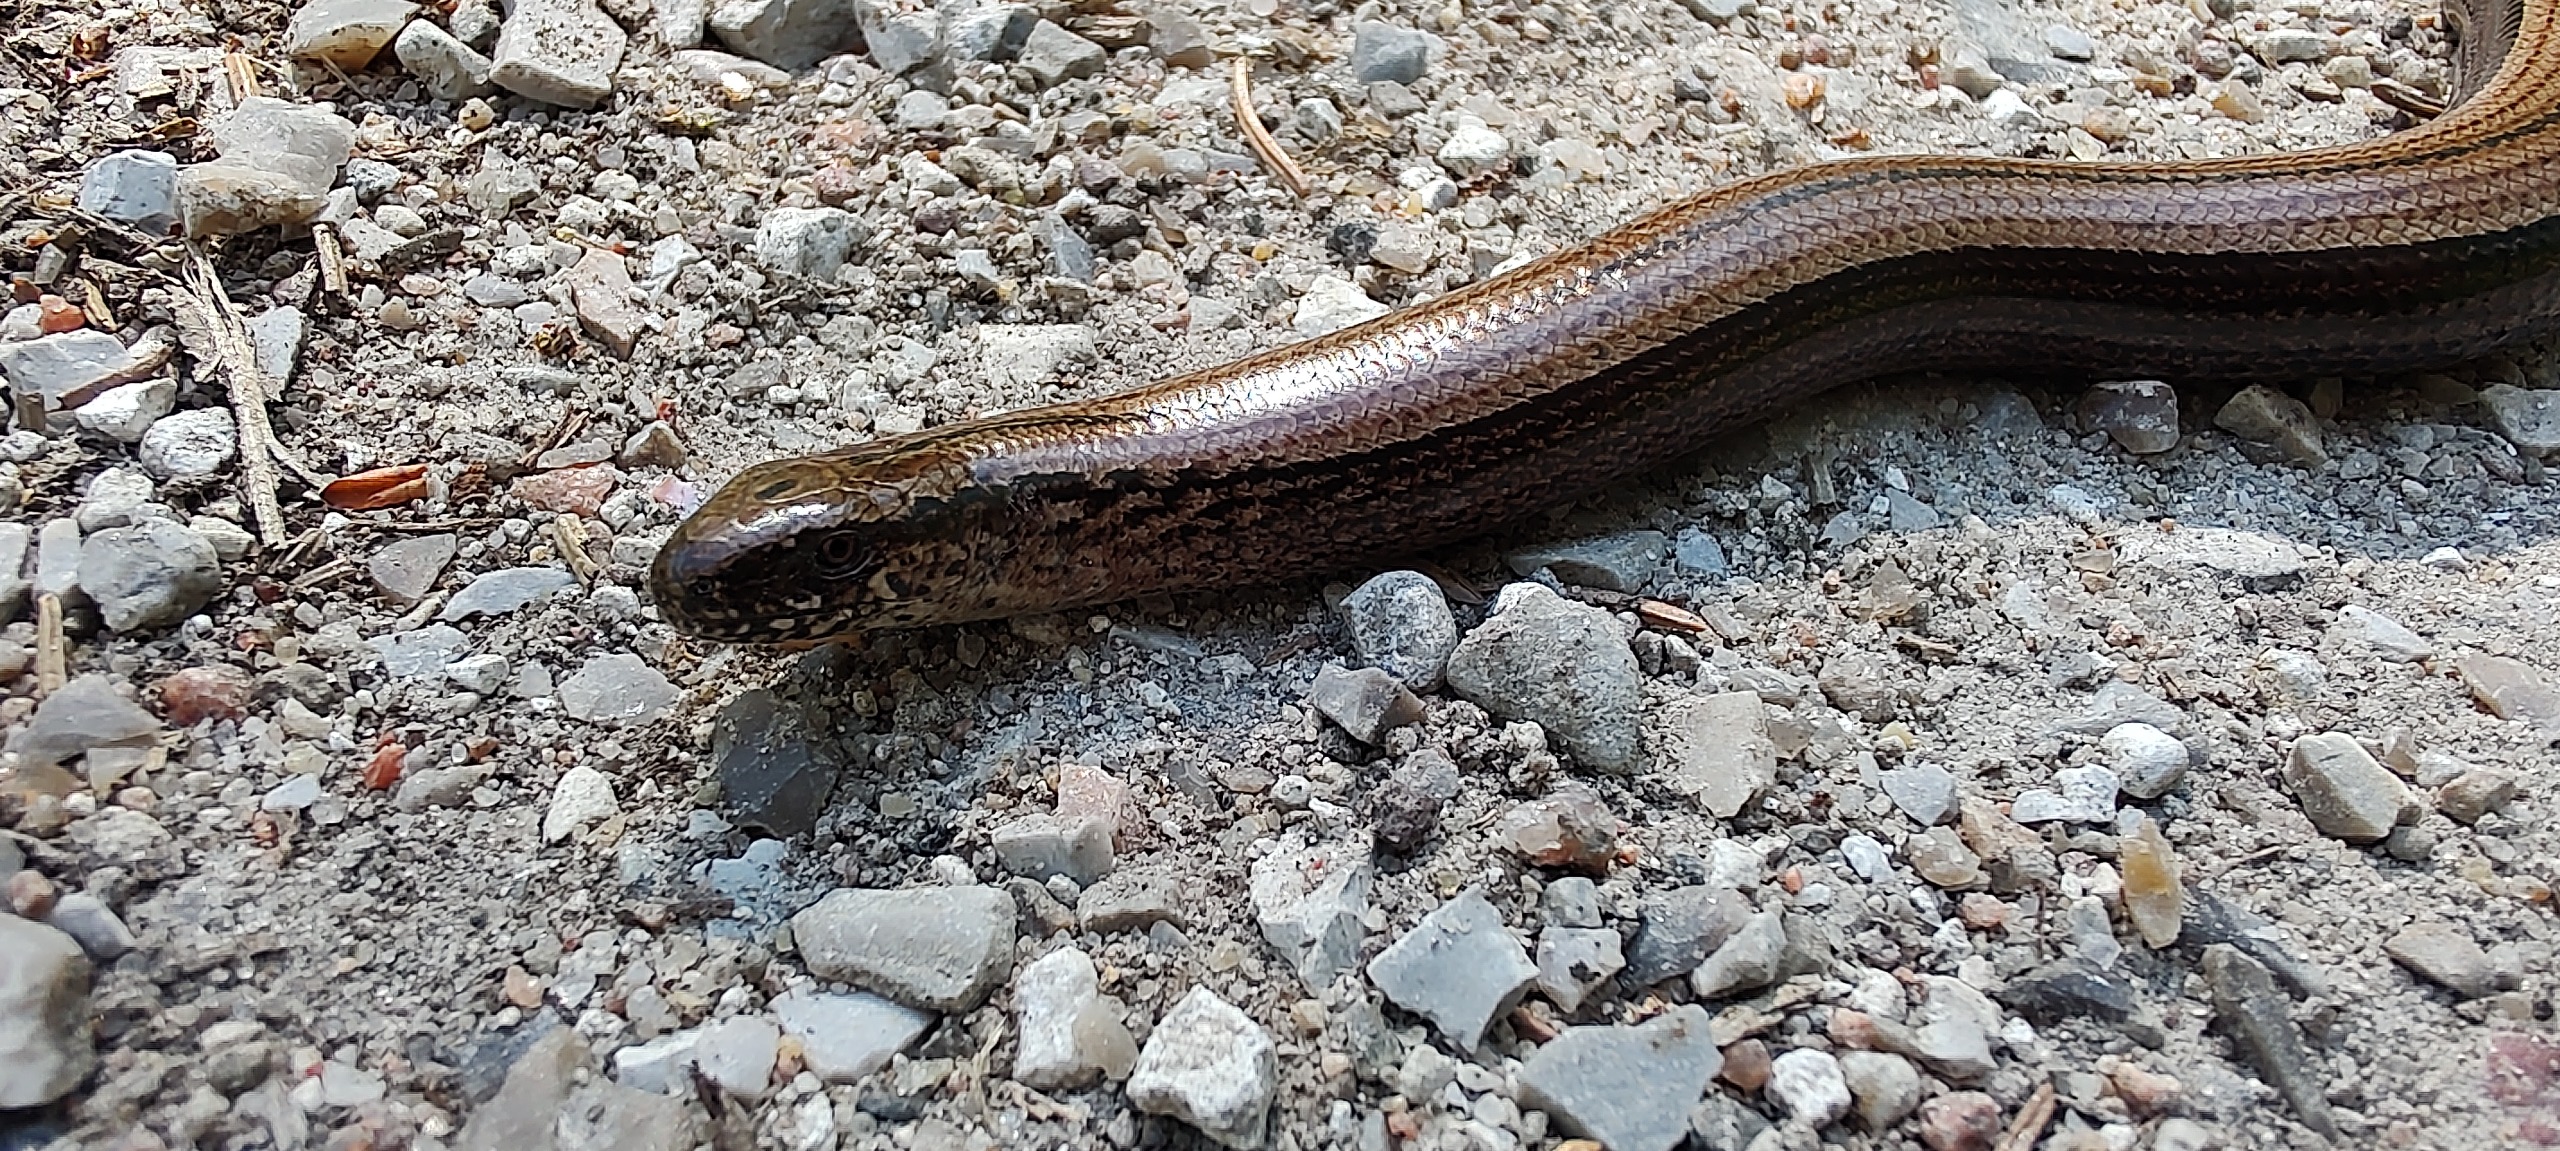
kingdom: Animalia
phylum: Chordata
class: Squamata
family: Anguidae
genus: Anguis
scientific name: Anguis fragilis
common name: Stålorm
